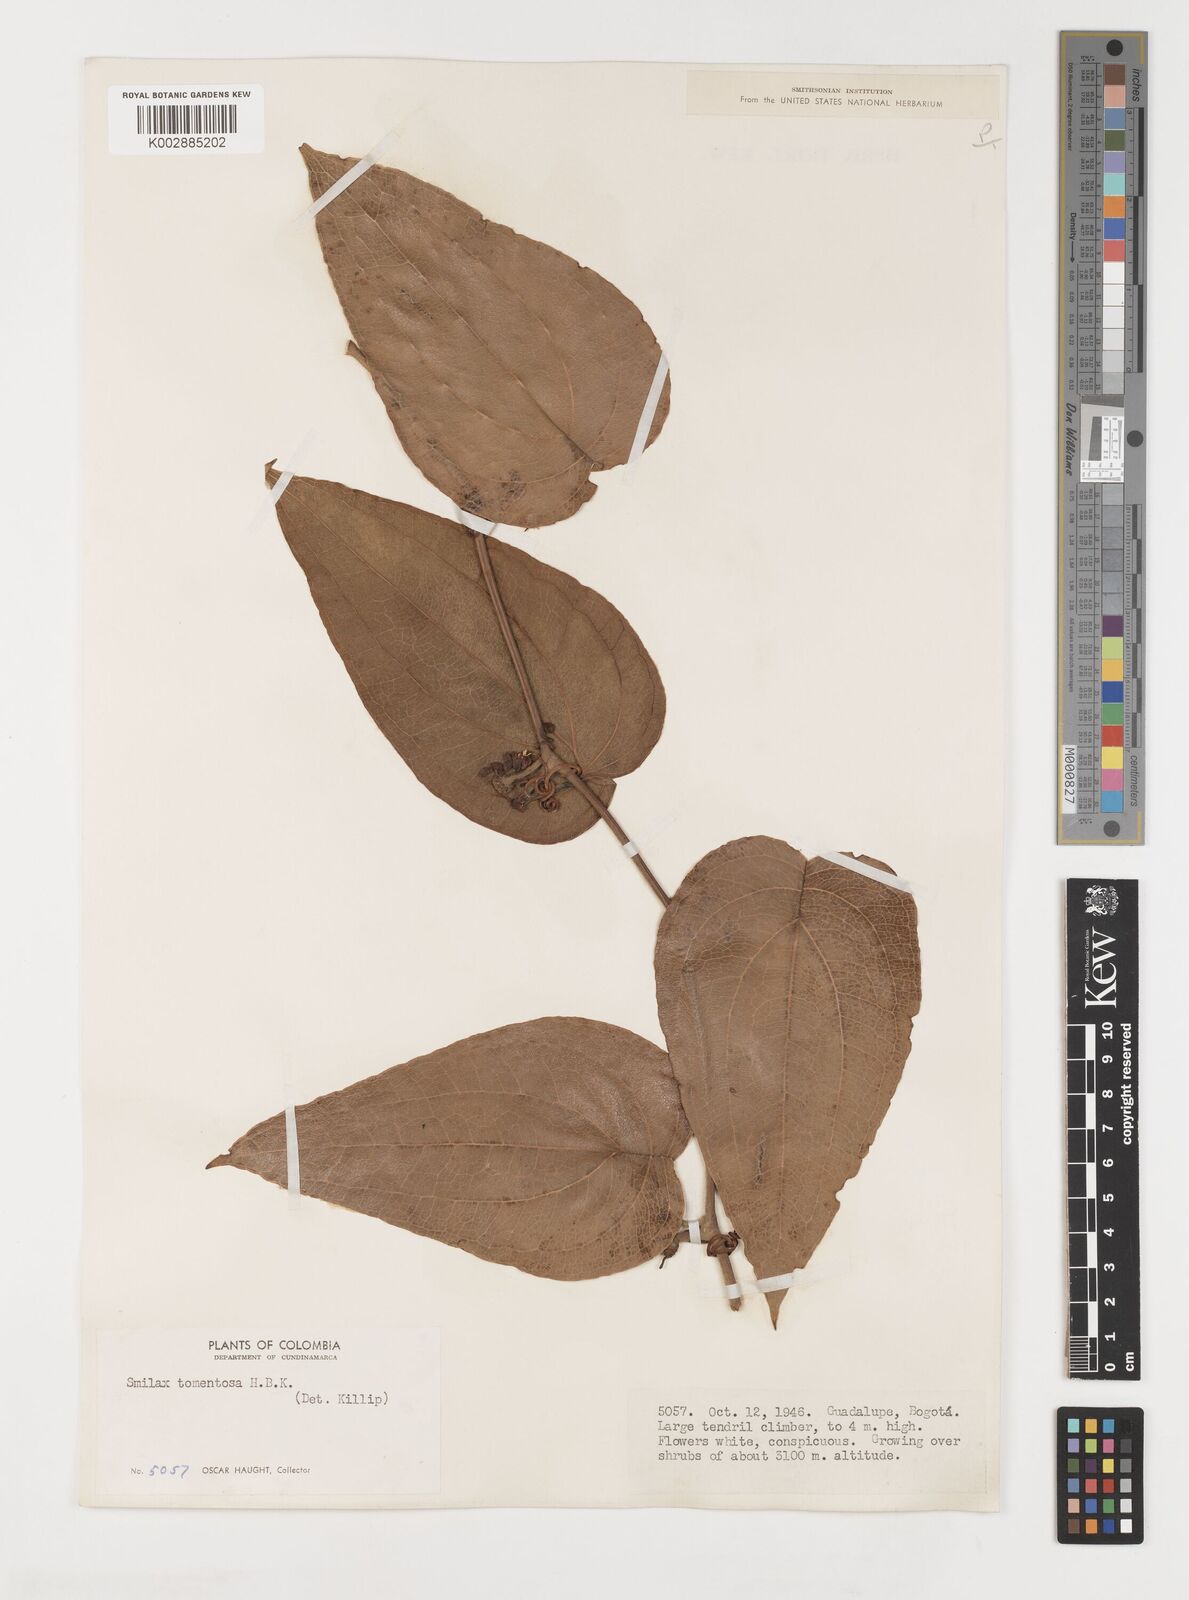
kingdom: Plantae
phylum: Tracheophyta
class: Liliopsida
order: Liliales
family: Smilacaceae
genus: Smilax
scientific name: Smilax tomentosa
